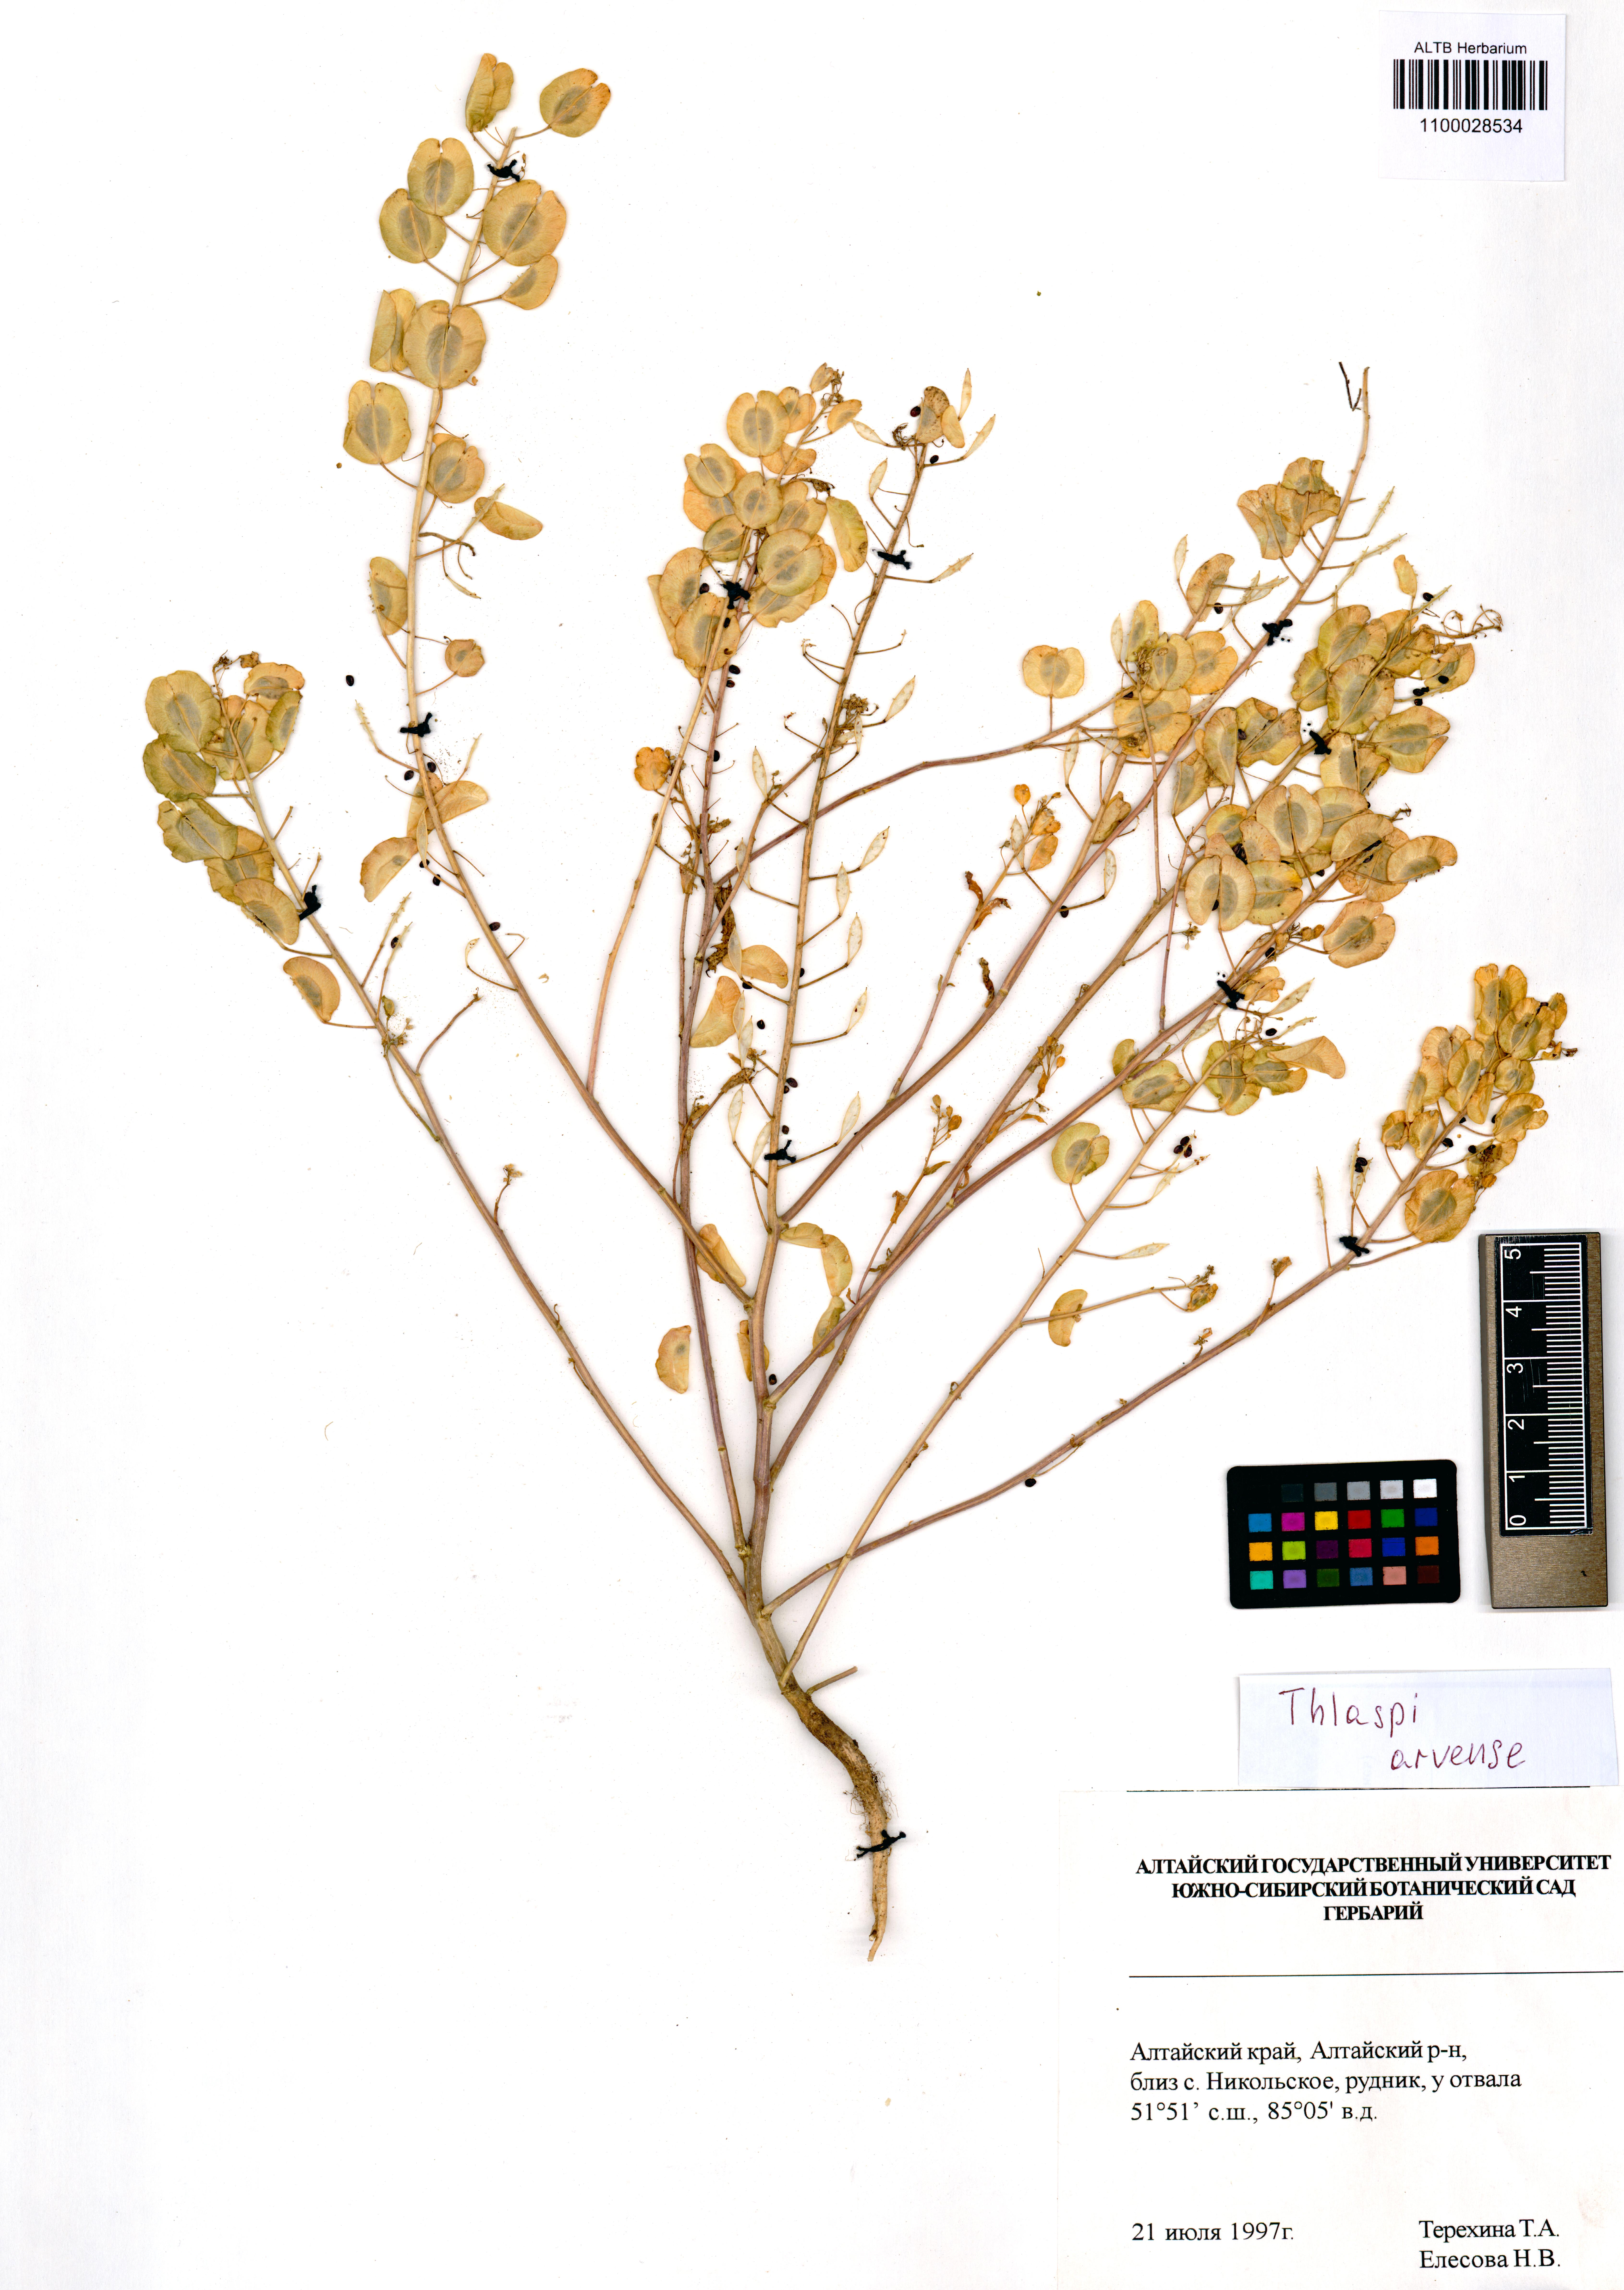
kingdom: Plantae
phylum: Tracheophyta
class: Magnoliopsida
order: Brassicales
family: Brassicaceae
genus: Thlaspi
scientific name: Thlaspi arvense
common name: Field pennycress
